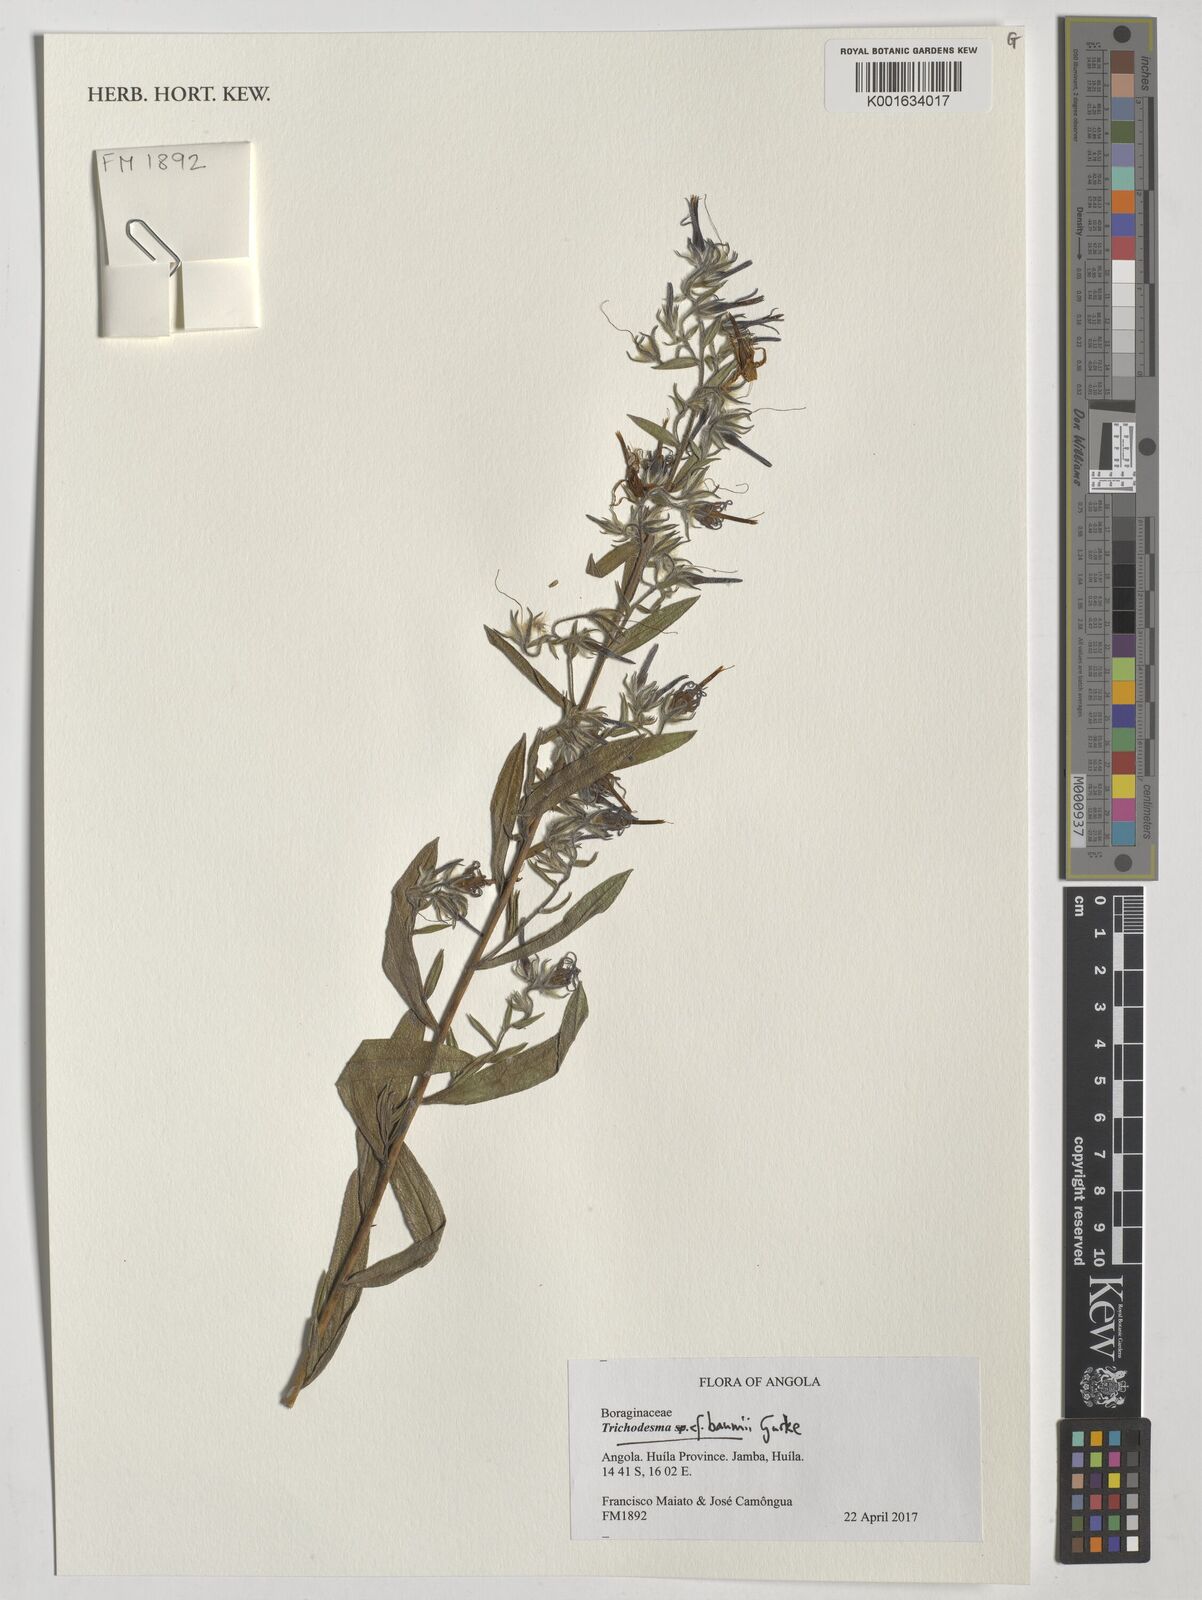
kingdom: Plantae
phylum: Tracheophyta
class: Magnoliopsida
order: Boraginales
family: Boraginaceae
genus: Trichodesma
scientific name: Trichodesma baumii
